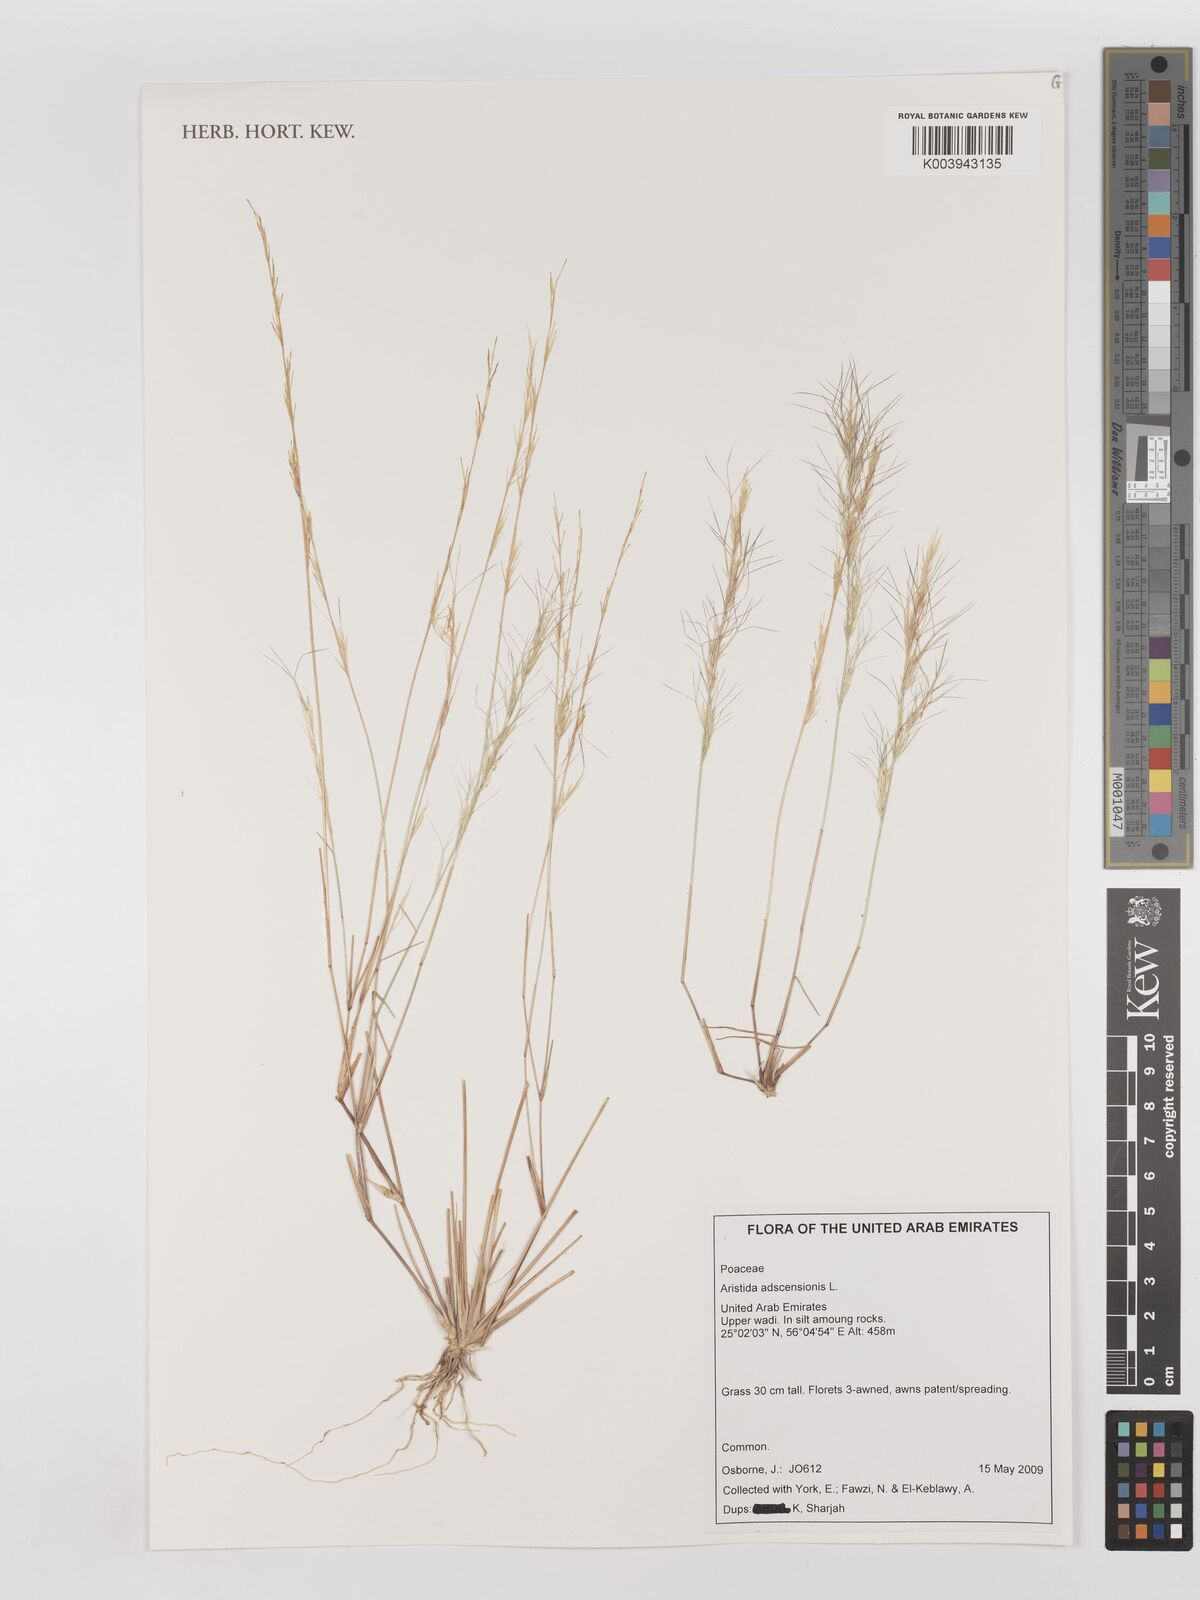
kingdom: Plantae
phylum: Tracheophyta
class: Liliopsida
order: Poales
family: Poaceae
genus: Aristida
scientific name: Aristida adscensionis
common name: Sixweeks threeawn
